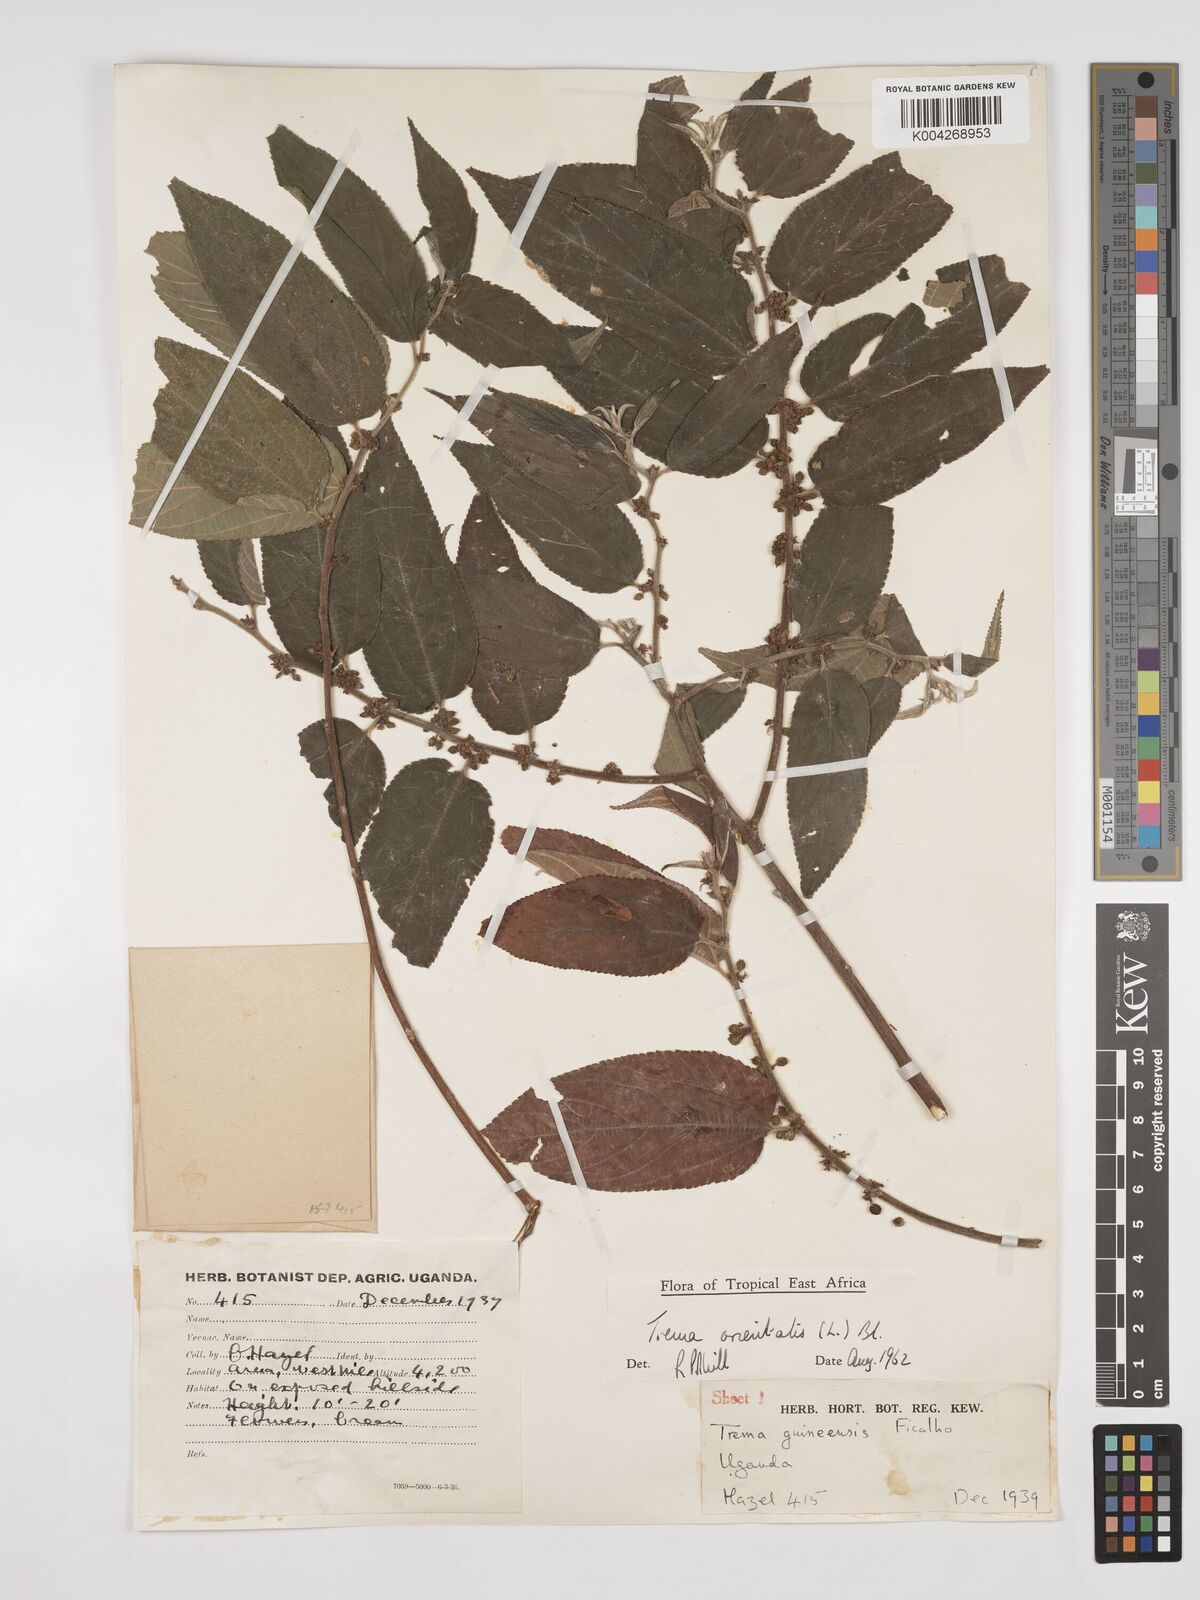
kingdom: Plantae
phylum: Tracheophyta
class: Magnoliopsida
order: Rosales
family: Cannabaceae
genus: Trema
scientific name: Trema orientale
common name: Indian charcoal tree
